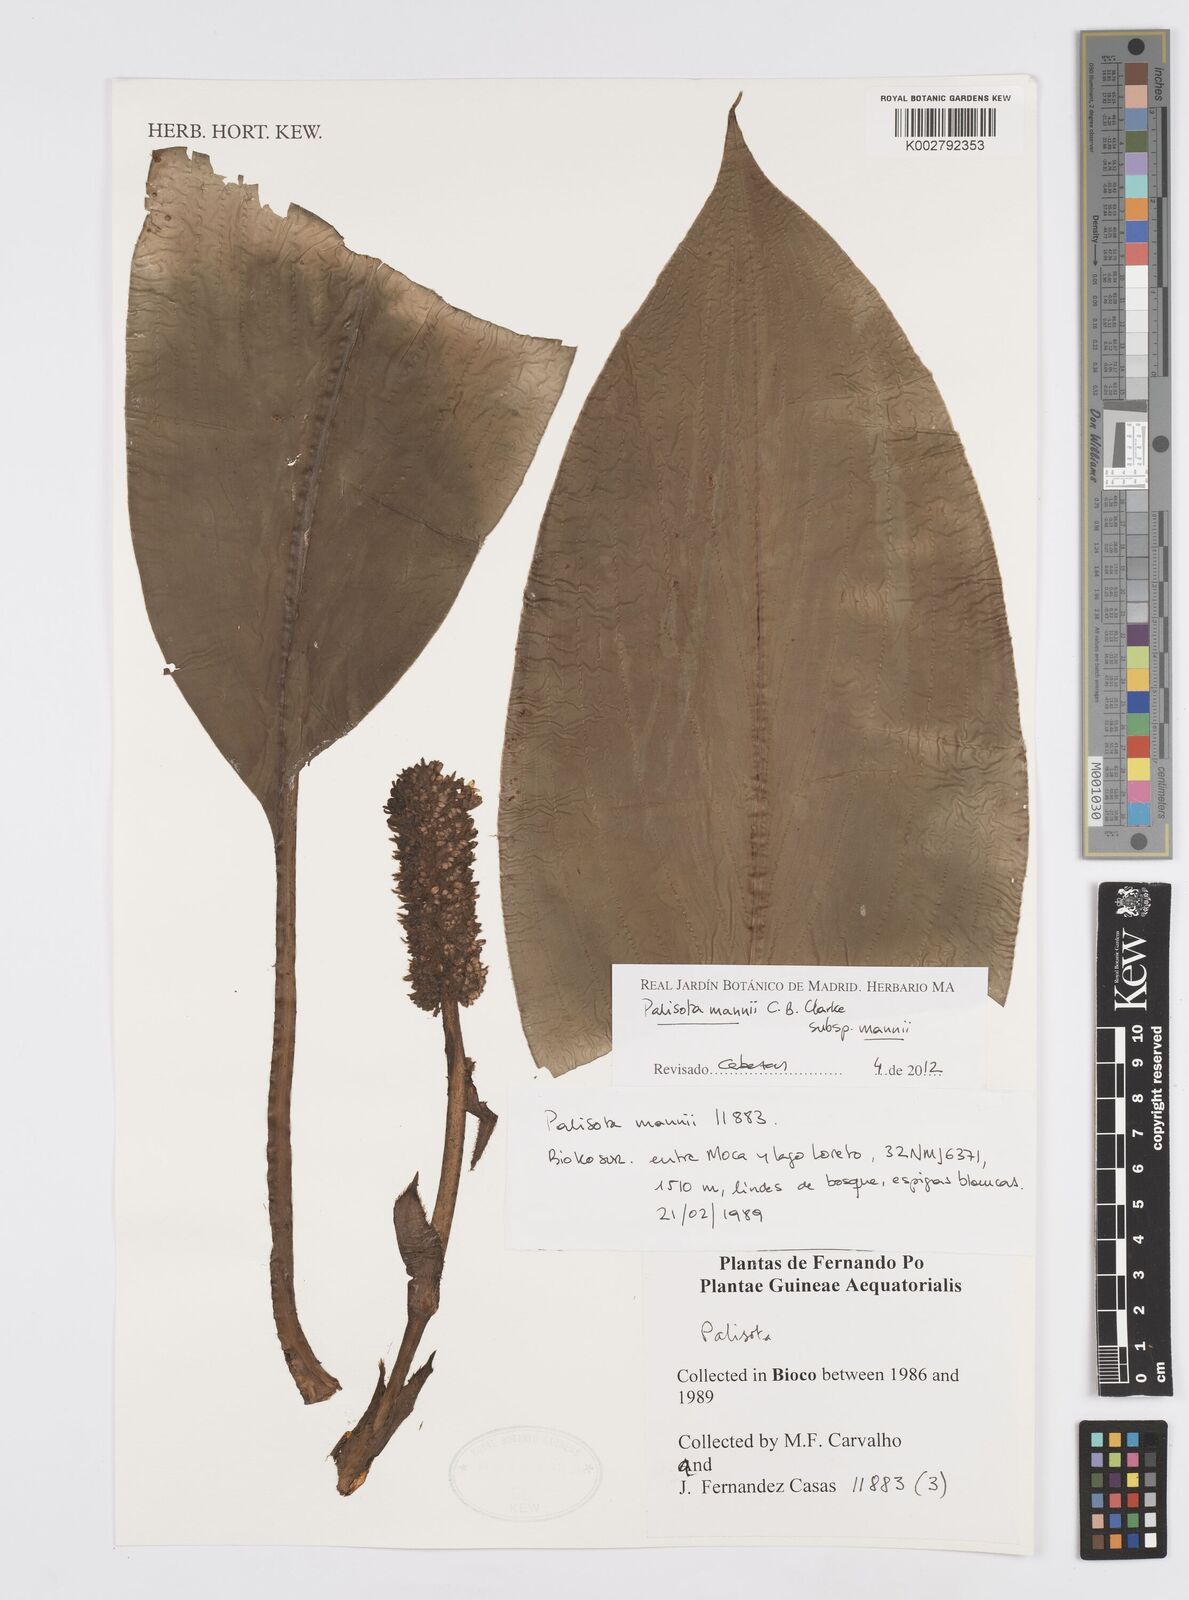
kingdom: Plantae
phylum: Tracheophyta
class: Liliopsida
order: Commelinales
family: Commelinaceae
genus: Palisota
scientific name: Palisota mannii
